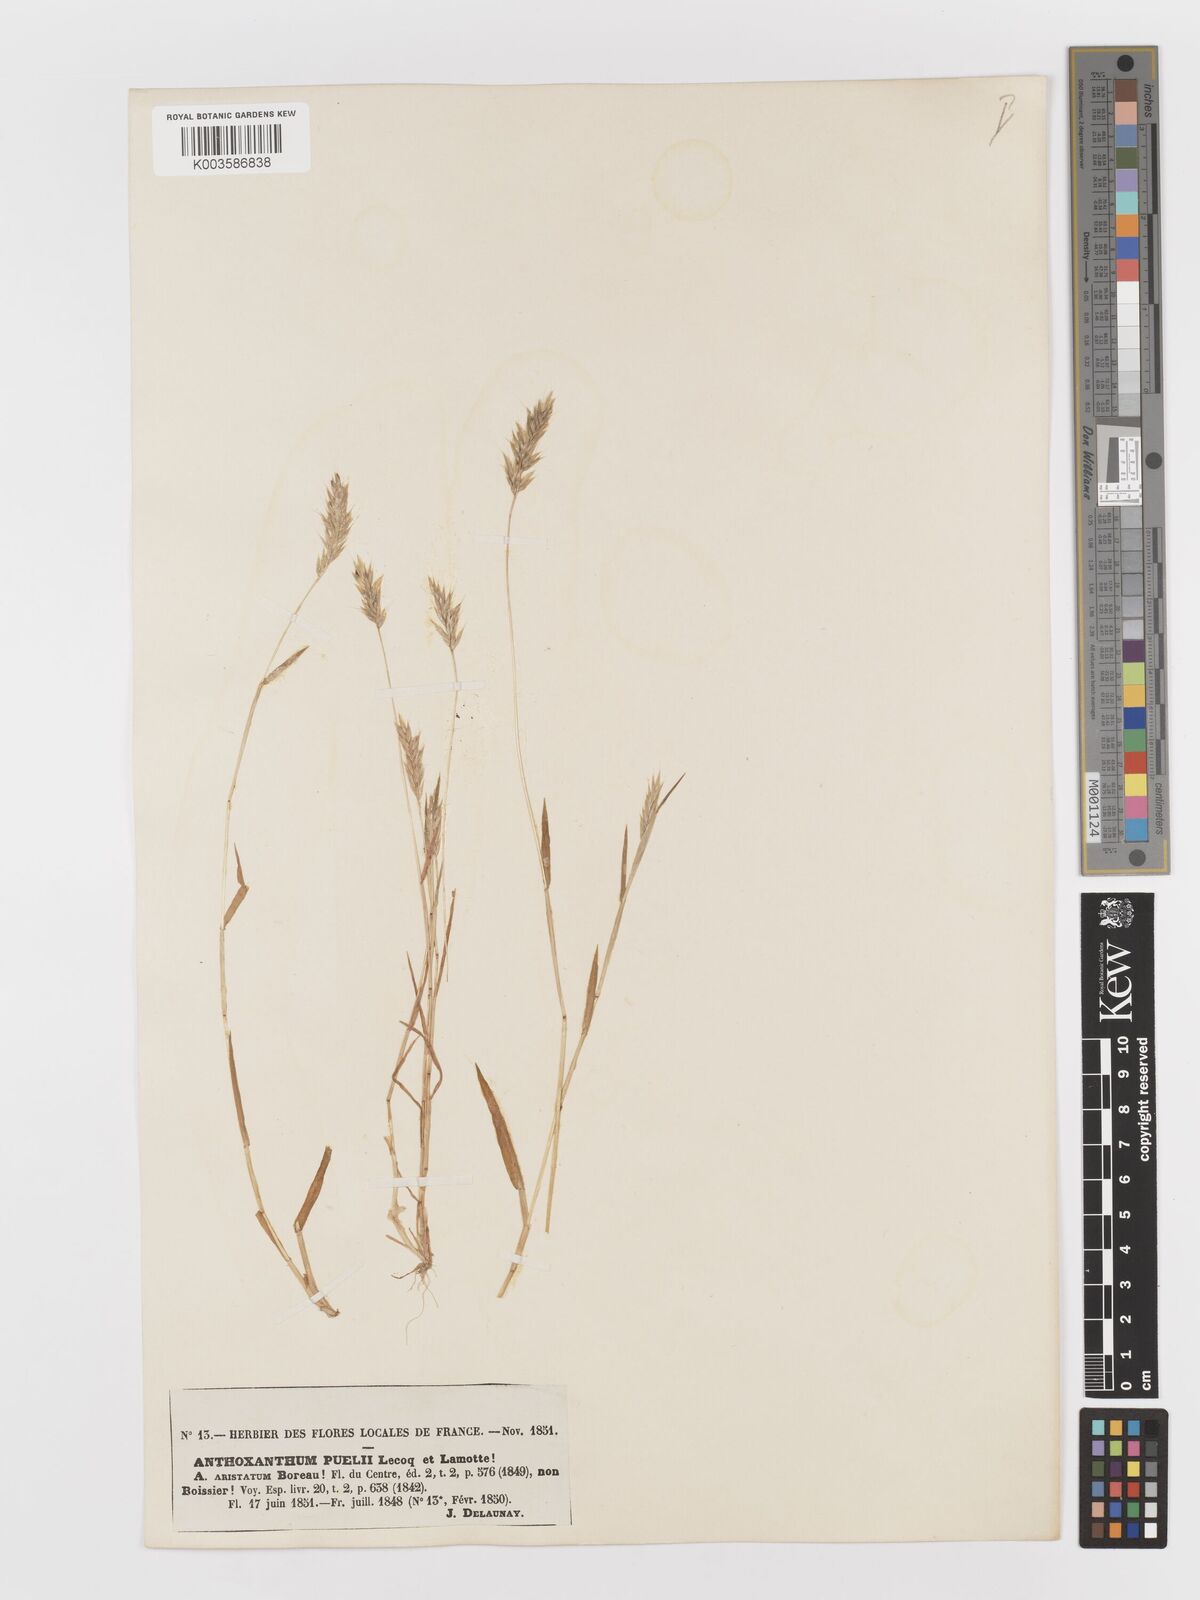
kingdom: Plantae
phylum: Tracheophyta
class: Liliopsida
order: Poales
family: Poaceae
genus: Anthoxanthum
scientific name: Anthoxanthum
